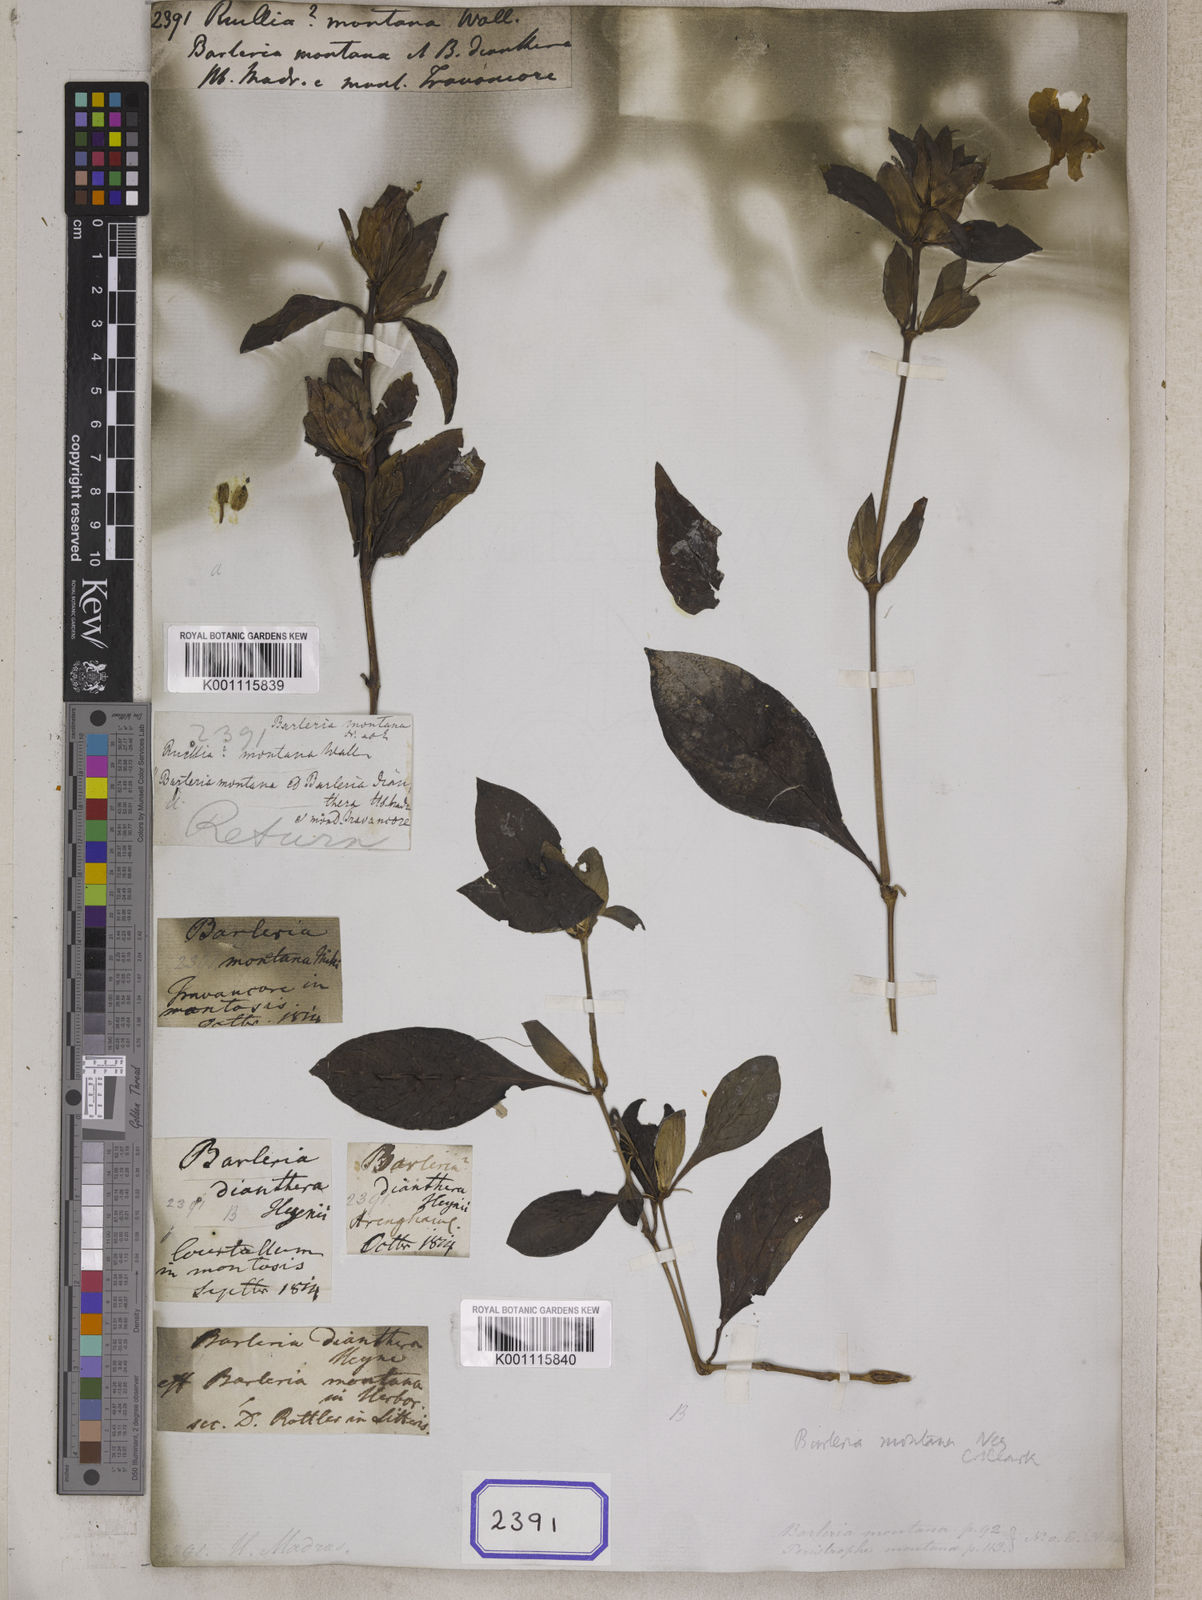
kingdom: Plantae
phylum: Tracheophyta
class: Magnoliopsida
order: Lamiales
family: Acanthaceae
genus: Barleria
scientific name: Barleria montana
